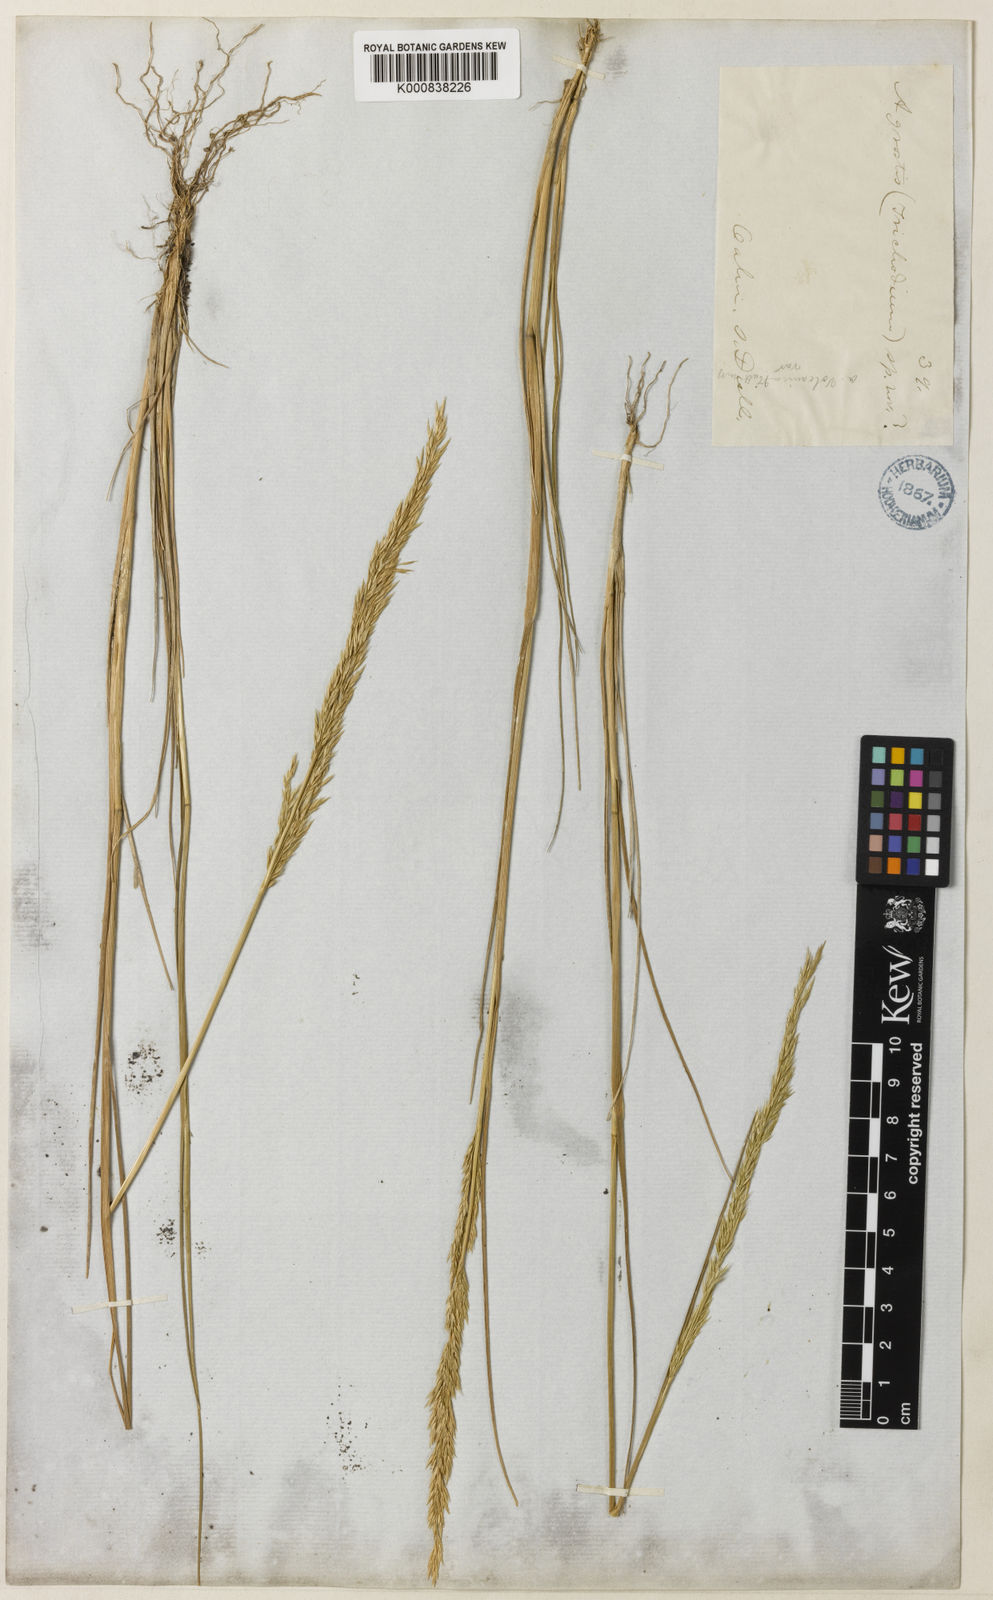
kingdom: Plantae
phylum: Tracheophyta
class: Liliopsida
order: Poales
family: Poaceae
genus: Agrostis
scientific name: Agrostis sandwicensis
